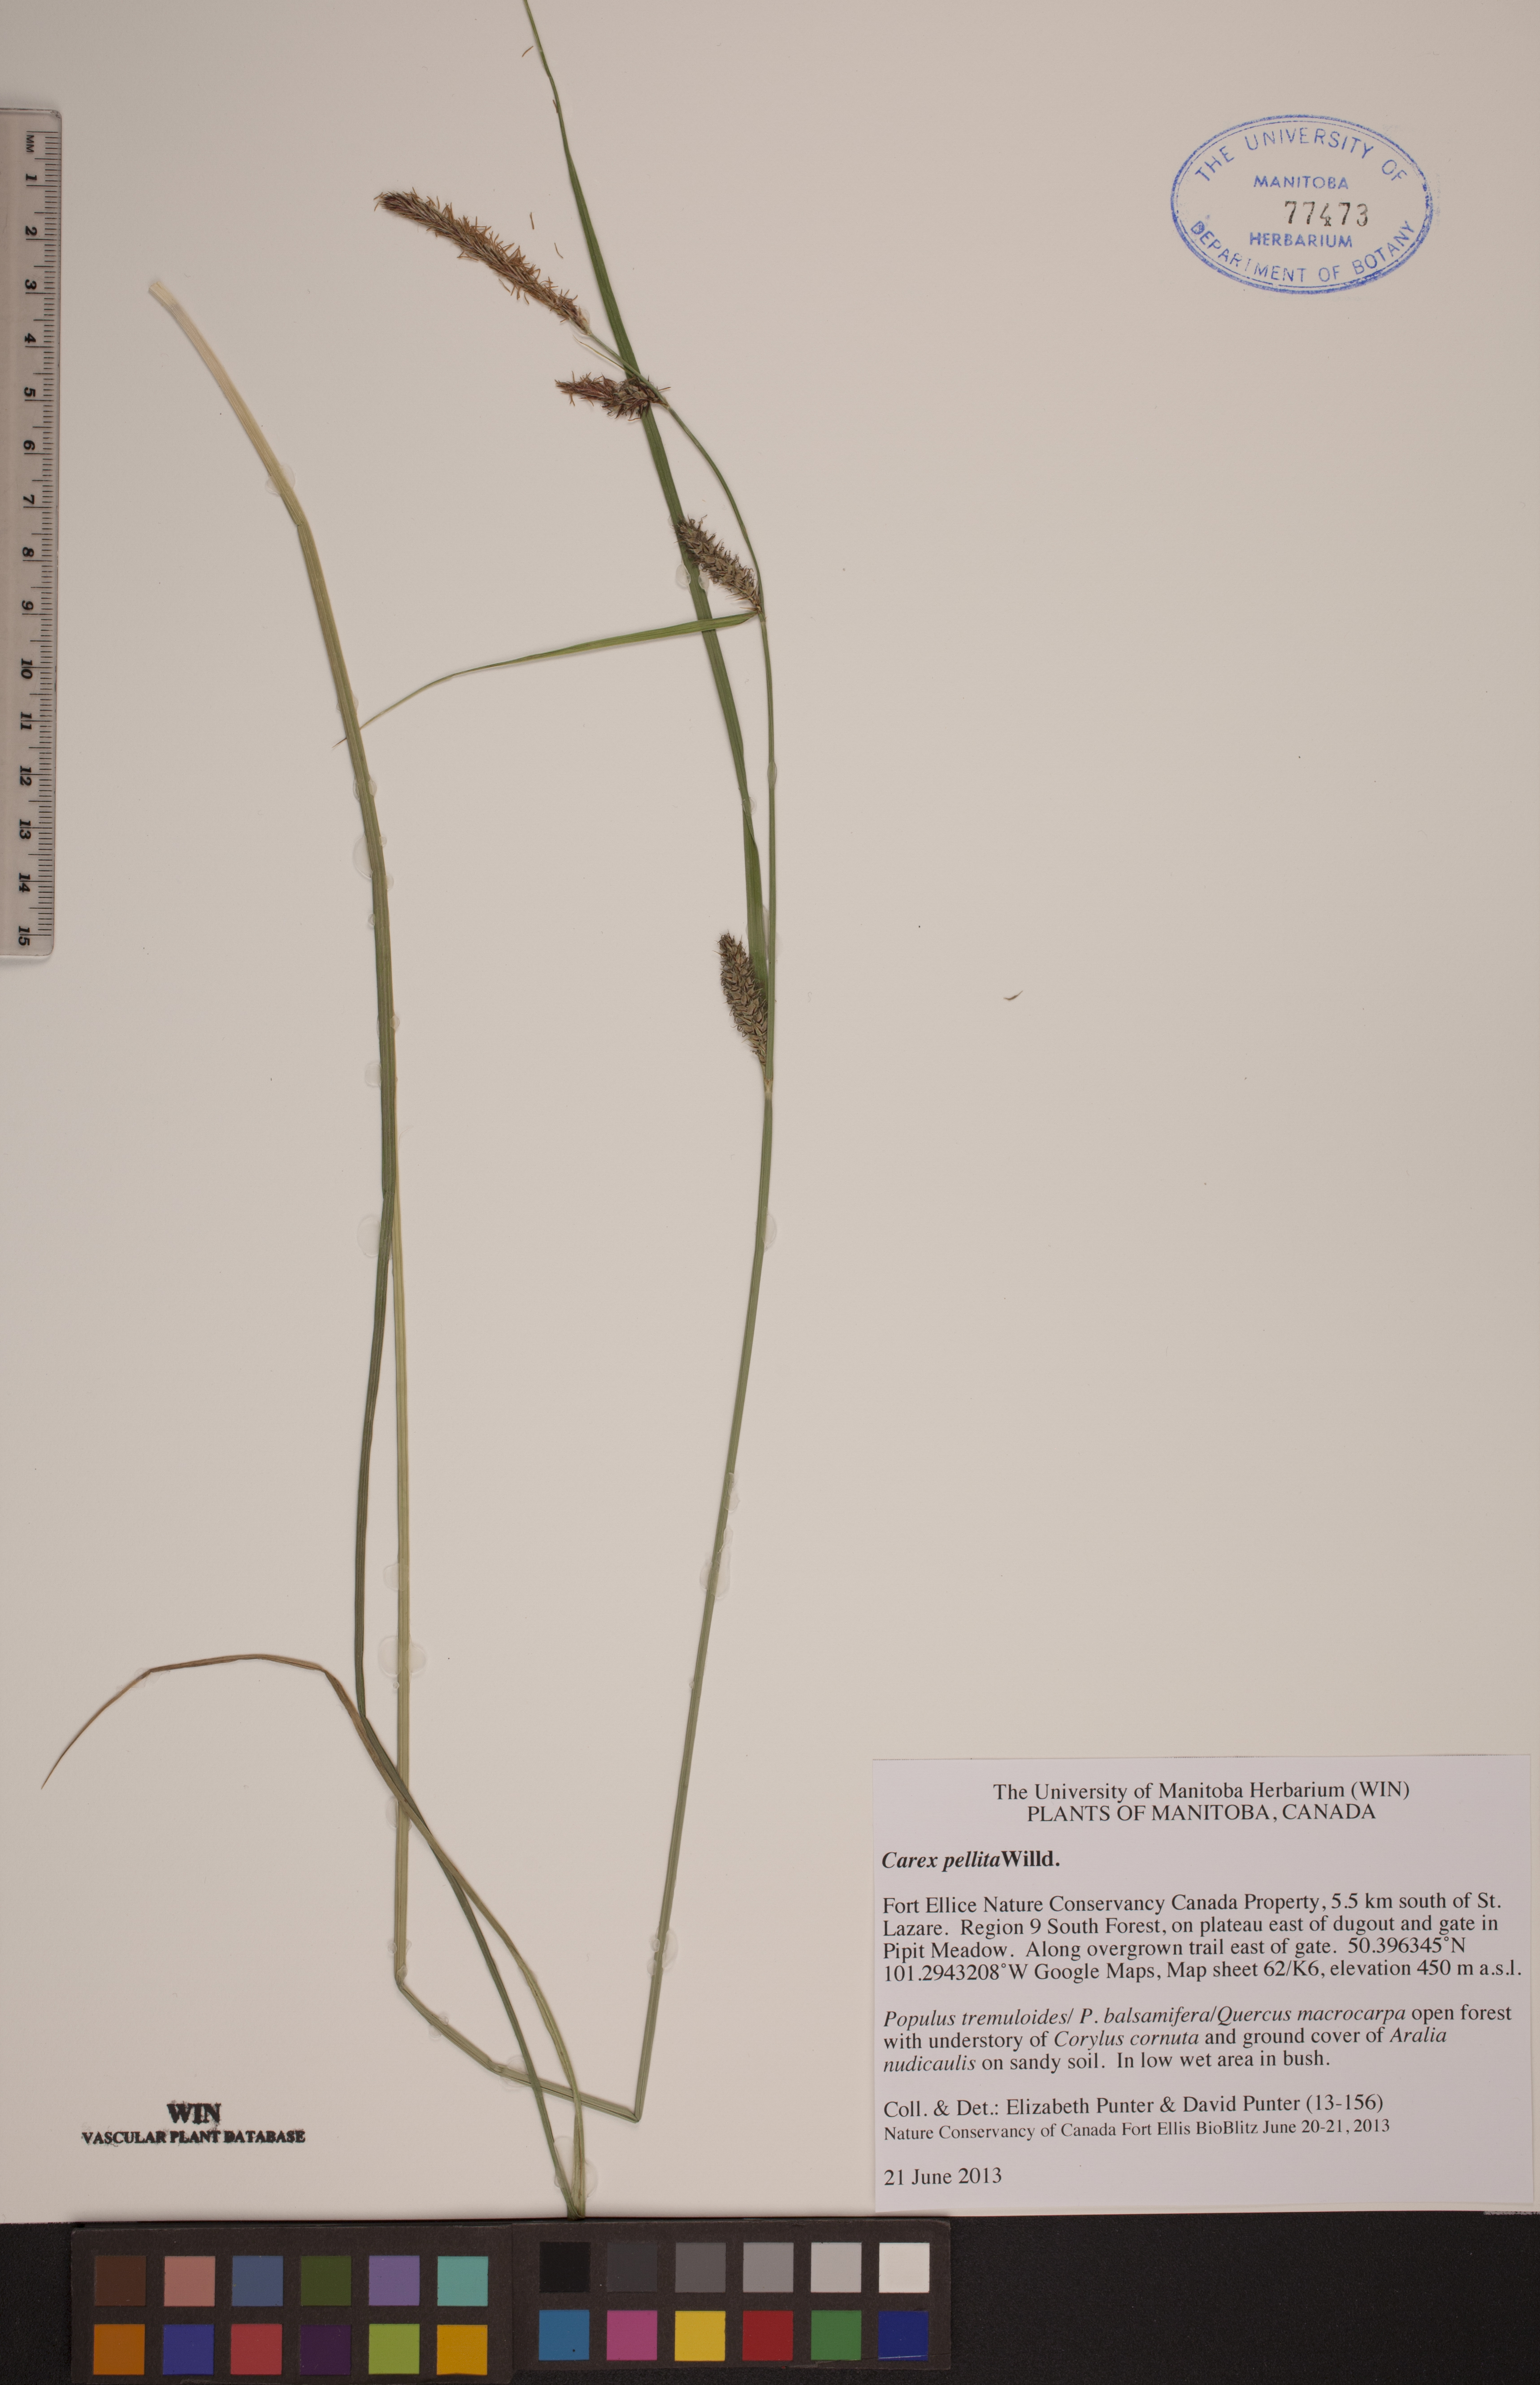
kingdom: Plantae
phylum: Tracheophyta
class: Liliopsida
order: Poales
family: Cyperaceae
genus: Carex
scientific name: Carex pellita
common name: Woolly sedge
